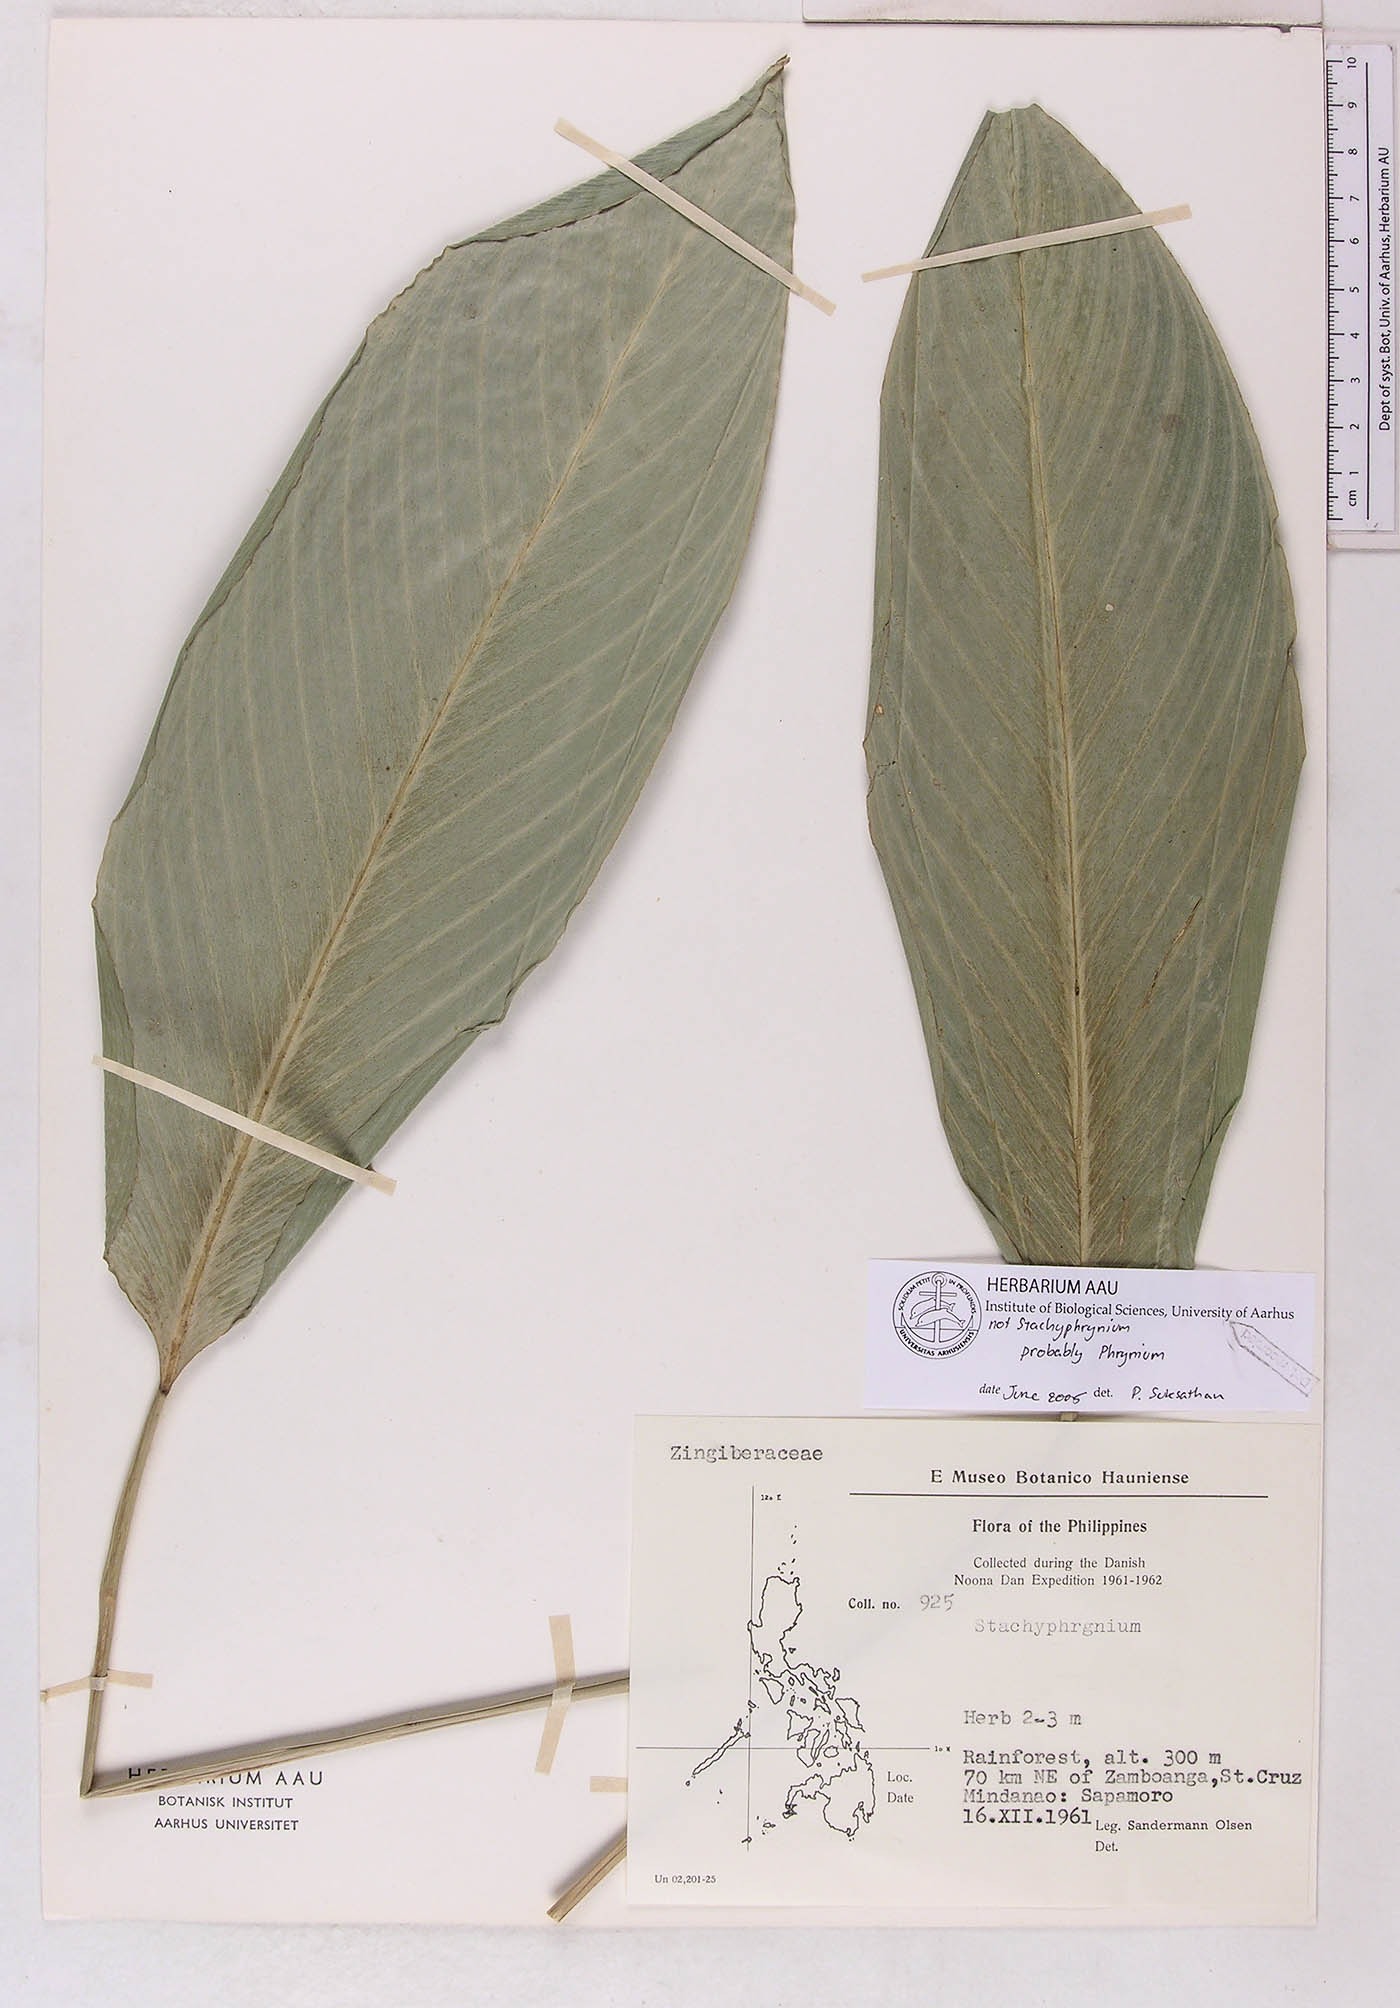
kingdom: Plantae
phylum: Tracheophyta
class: Liliopsida
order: Zingiberales
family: Marantaceae
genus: Phrynium
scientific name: Phrynium
